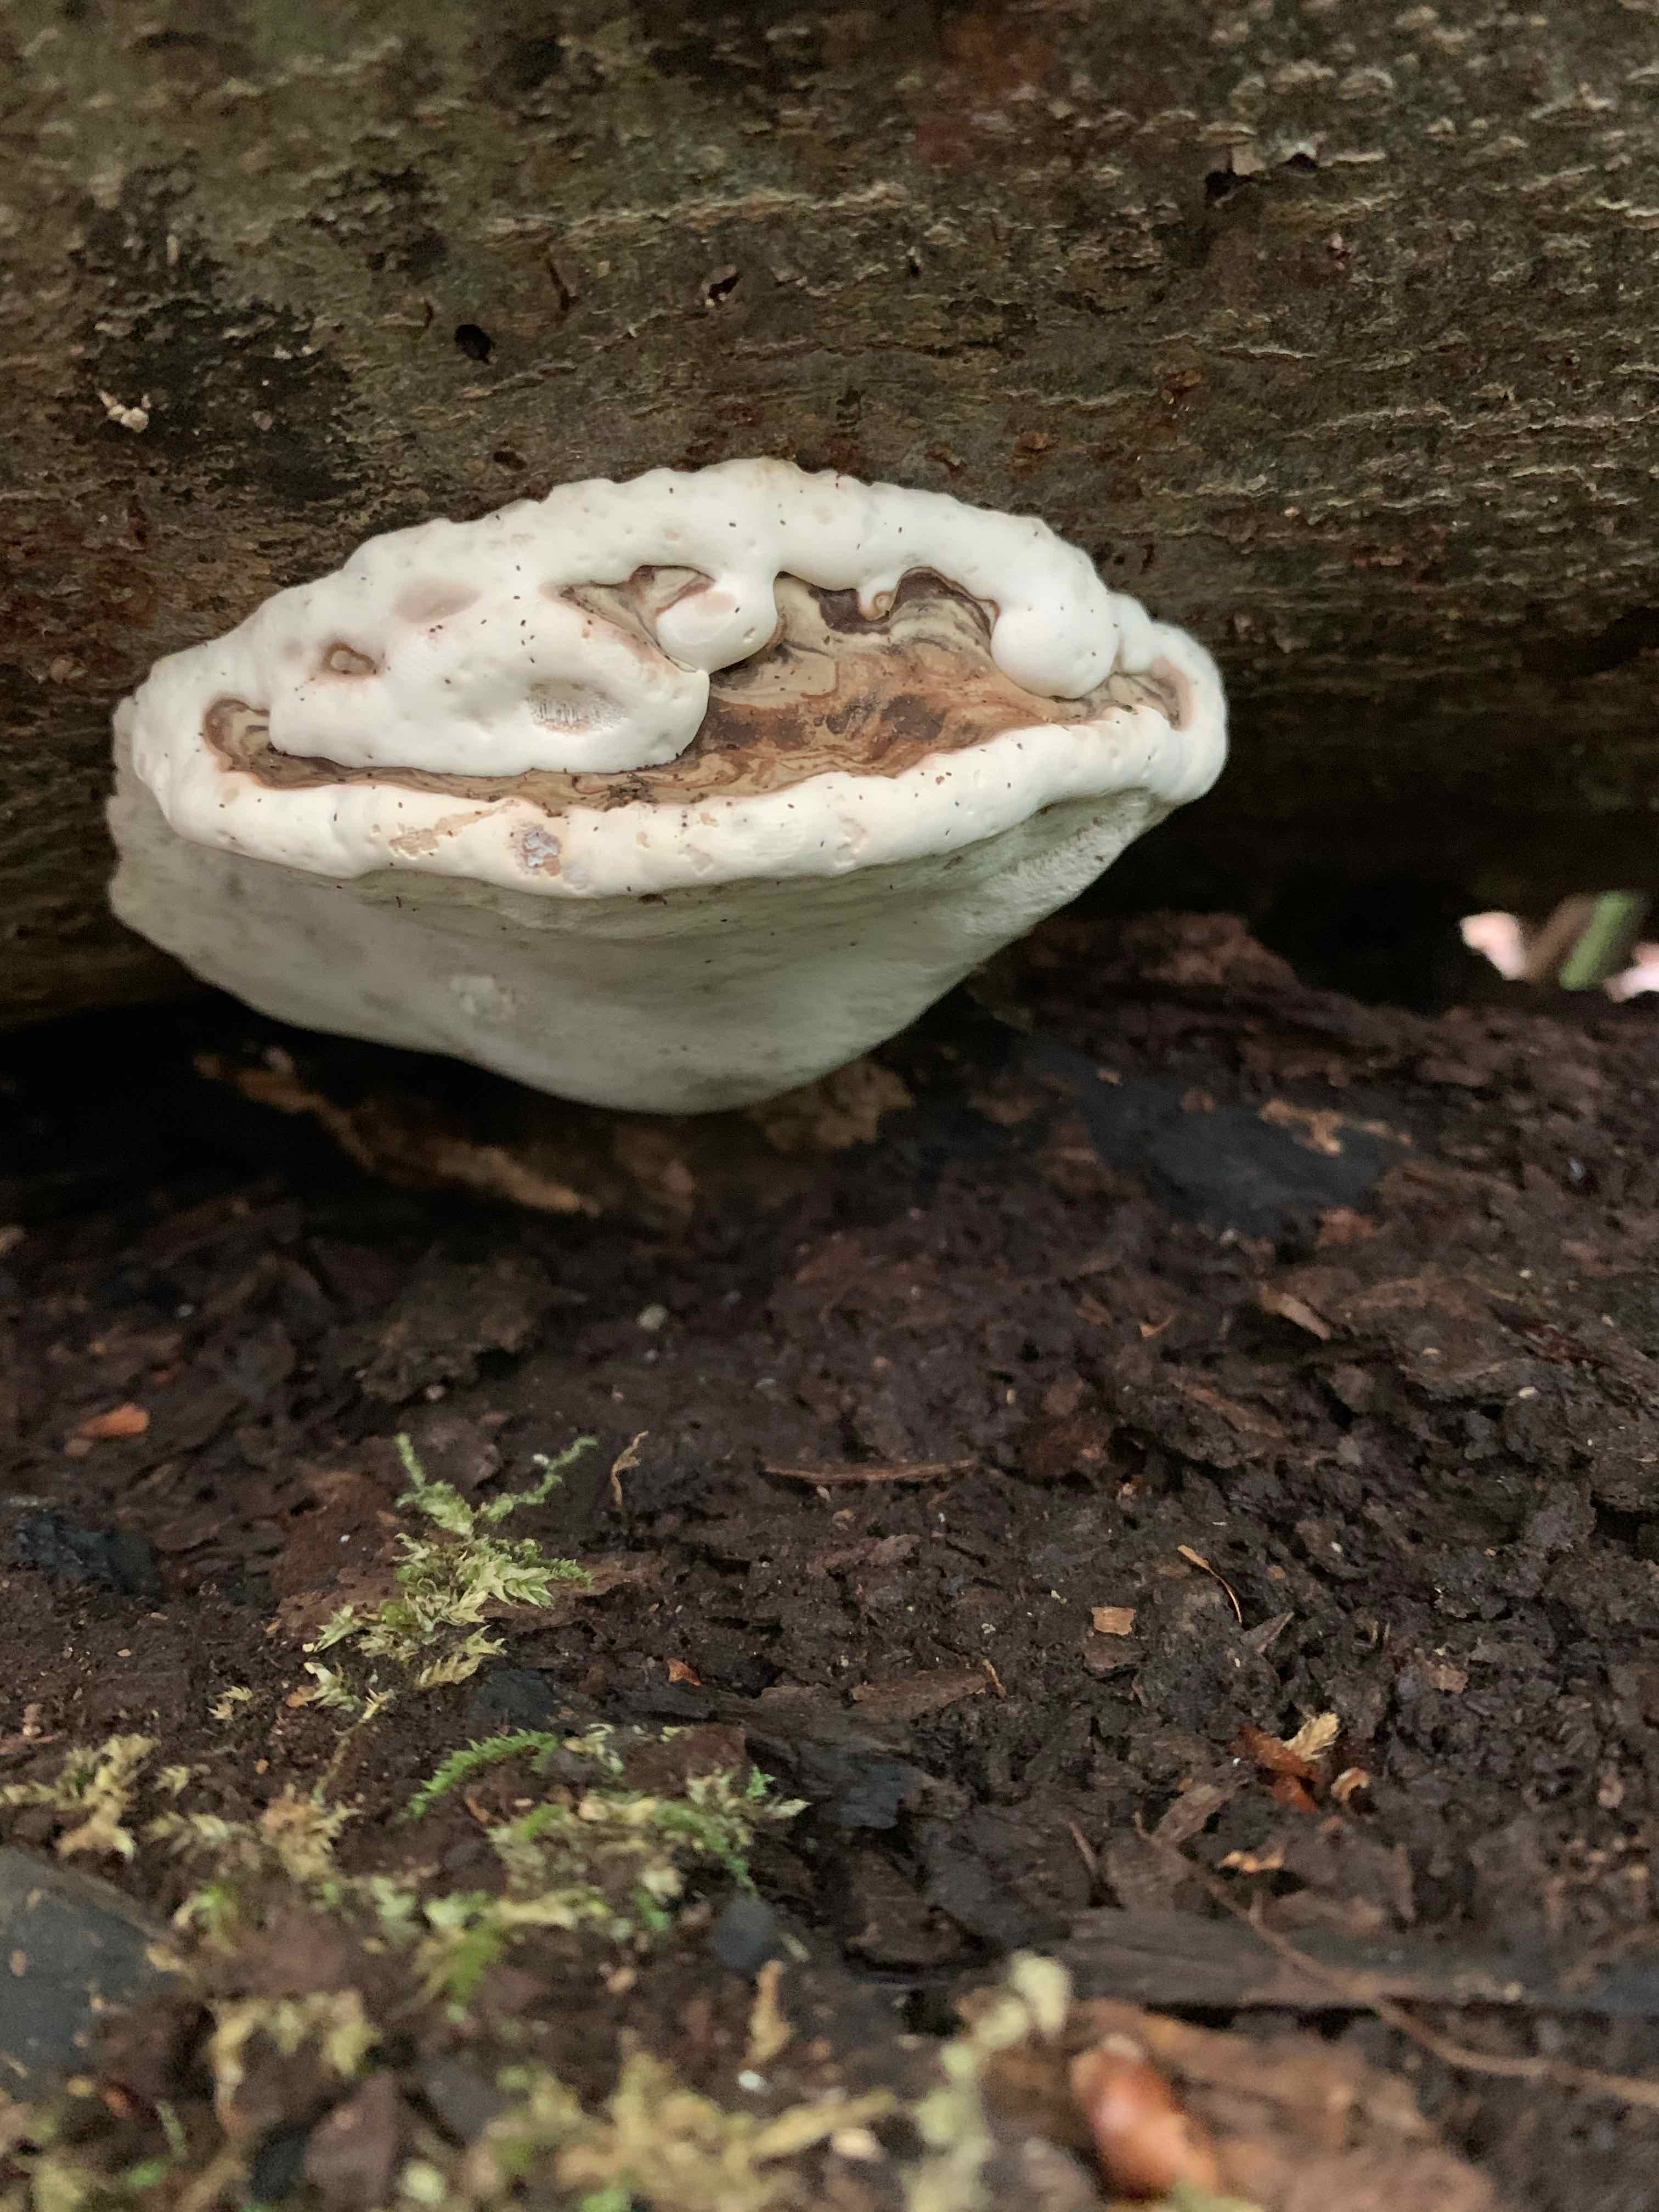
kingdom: Fungi
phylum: Basidiomycota
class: Agaricomycetes
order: Polyporales
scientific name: Polyporales
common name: poresvampordenen
